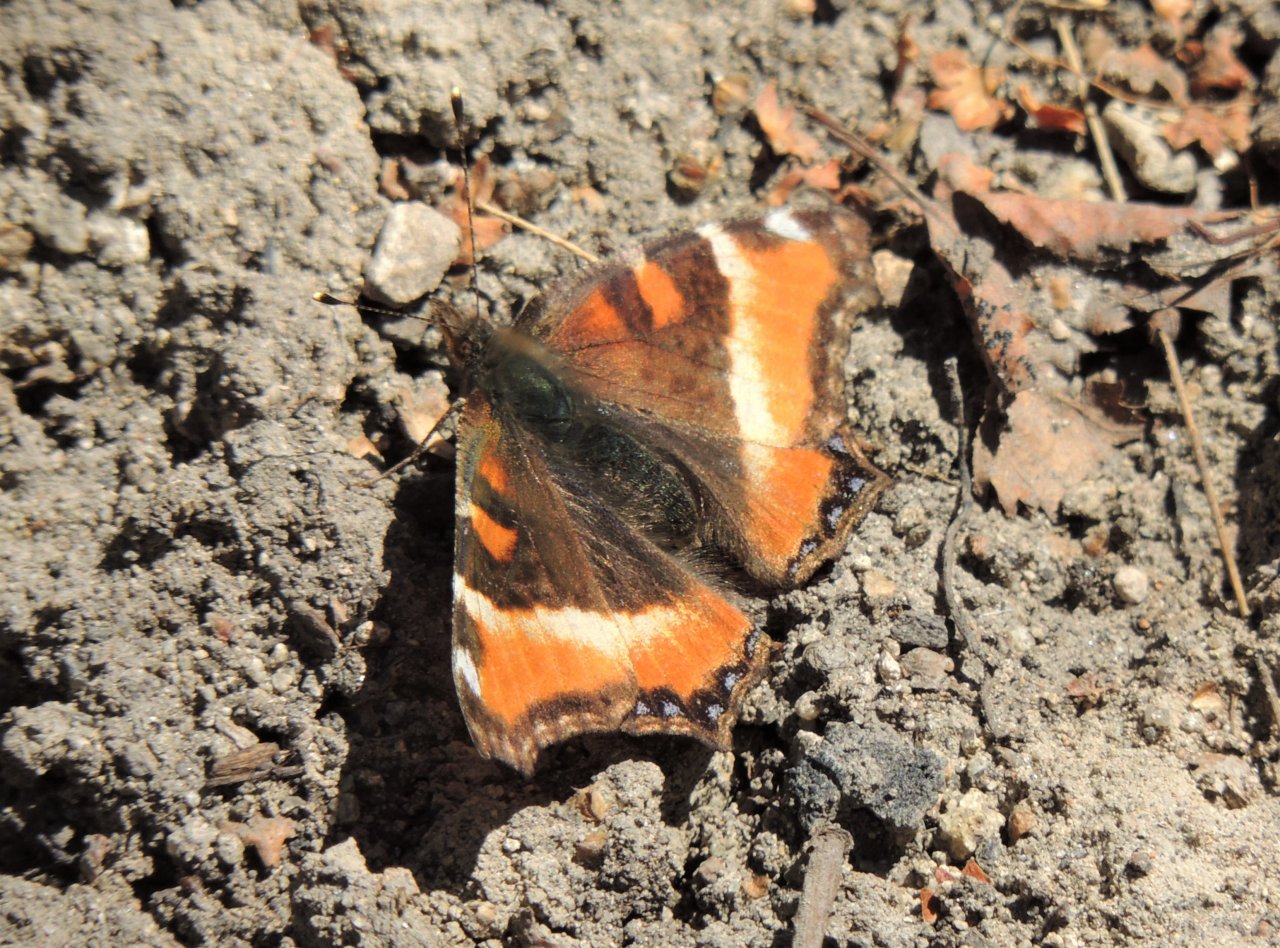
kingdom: Animalia
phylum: Arthropoda
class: Insecta
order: Lepidoptera
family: Nymphalidae
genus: Aglais
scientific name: Aglais milberti
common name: Milbert's Tortoiseshell
